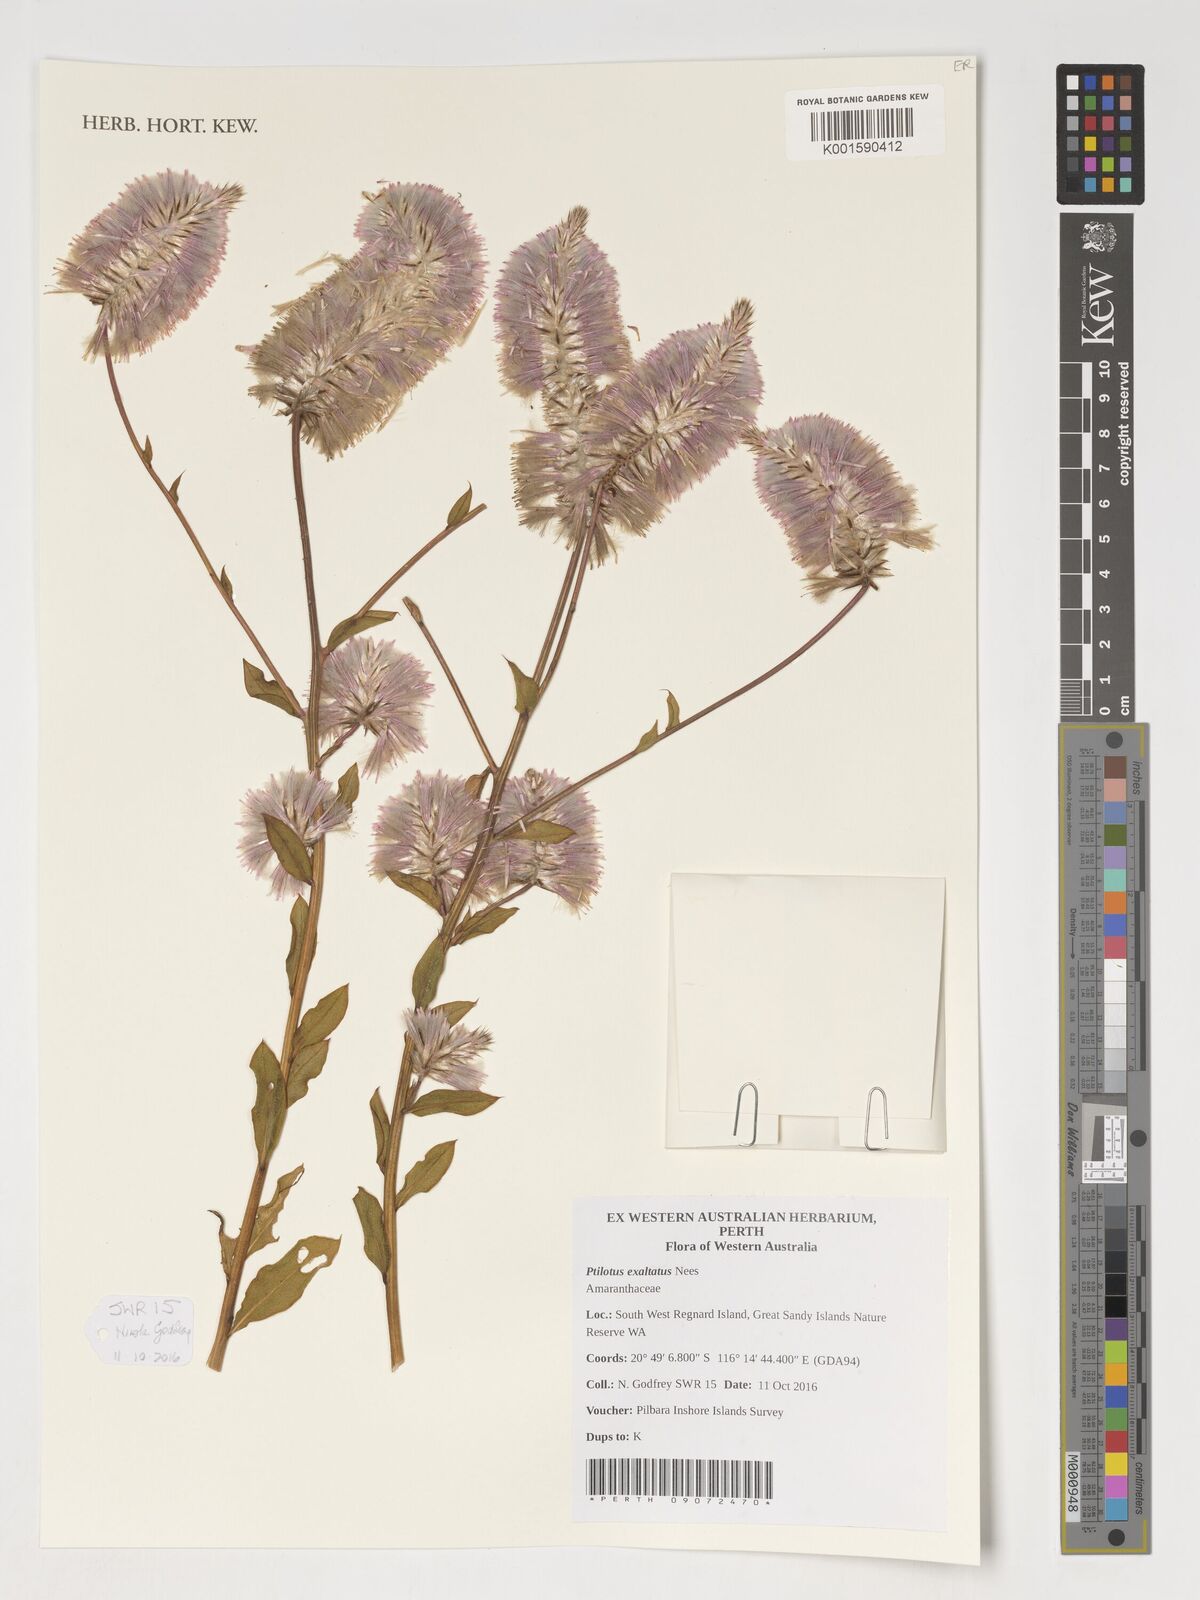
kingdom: Plantae
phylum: Tracheophyta
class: Magnoliopsida
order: Caryophyllales
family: Amaranthaceae
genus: Ptilotus
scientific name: Ptilotus exaltatus
